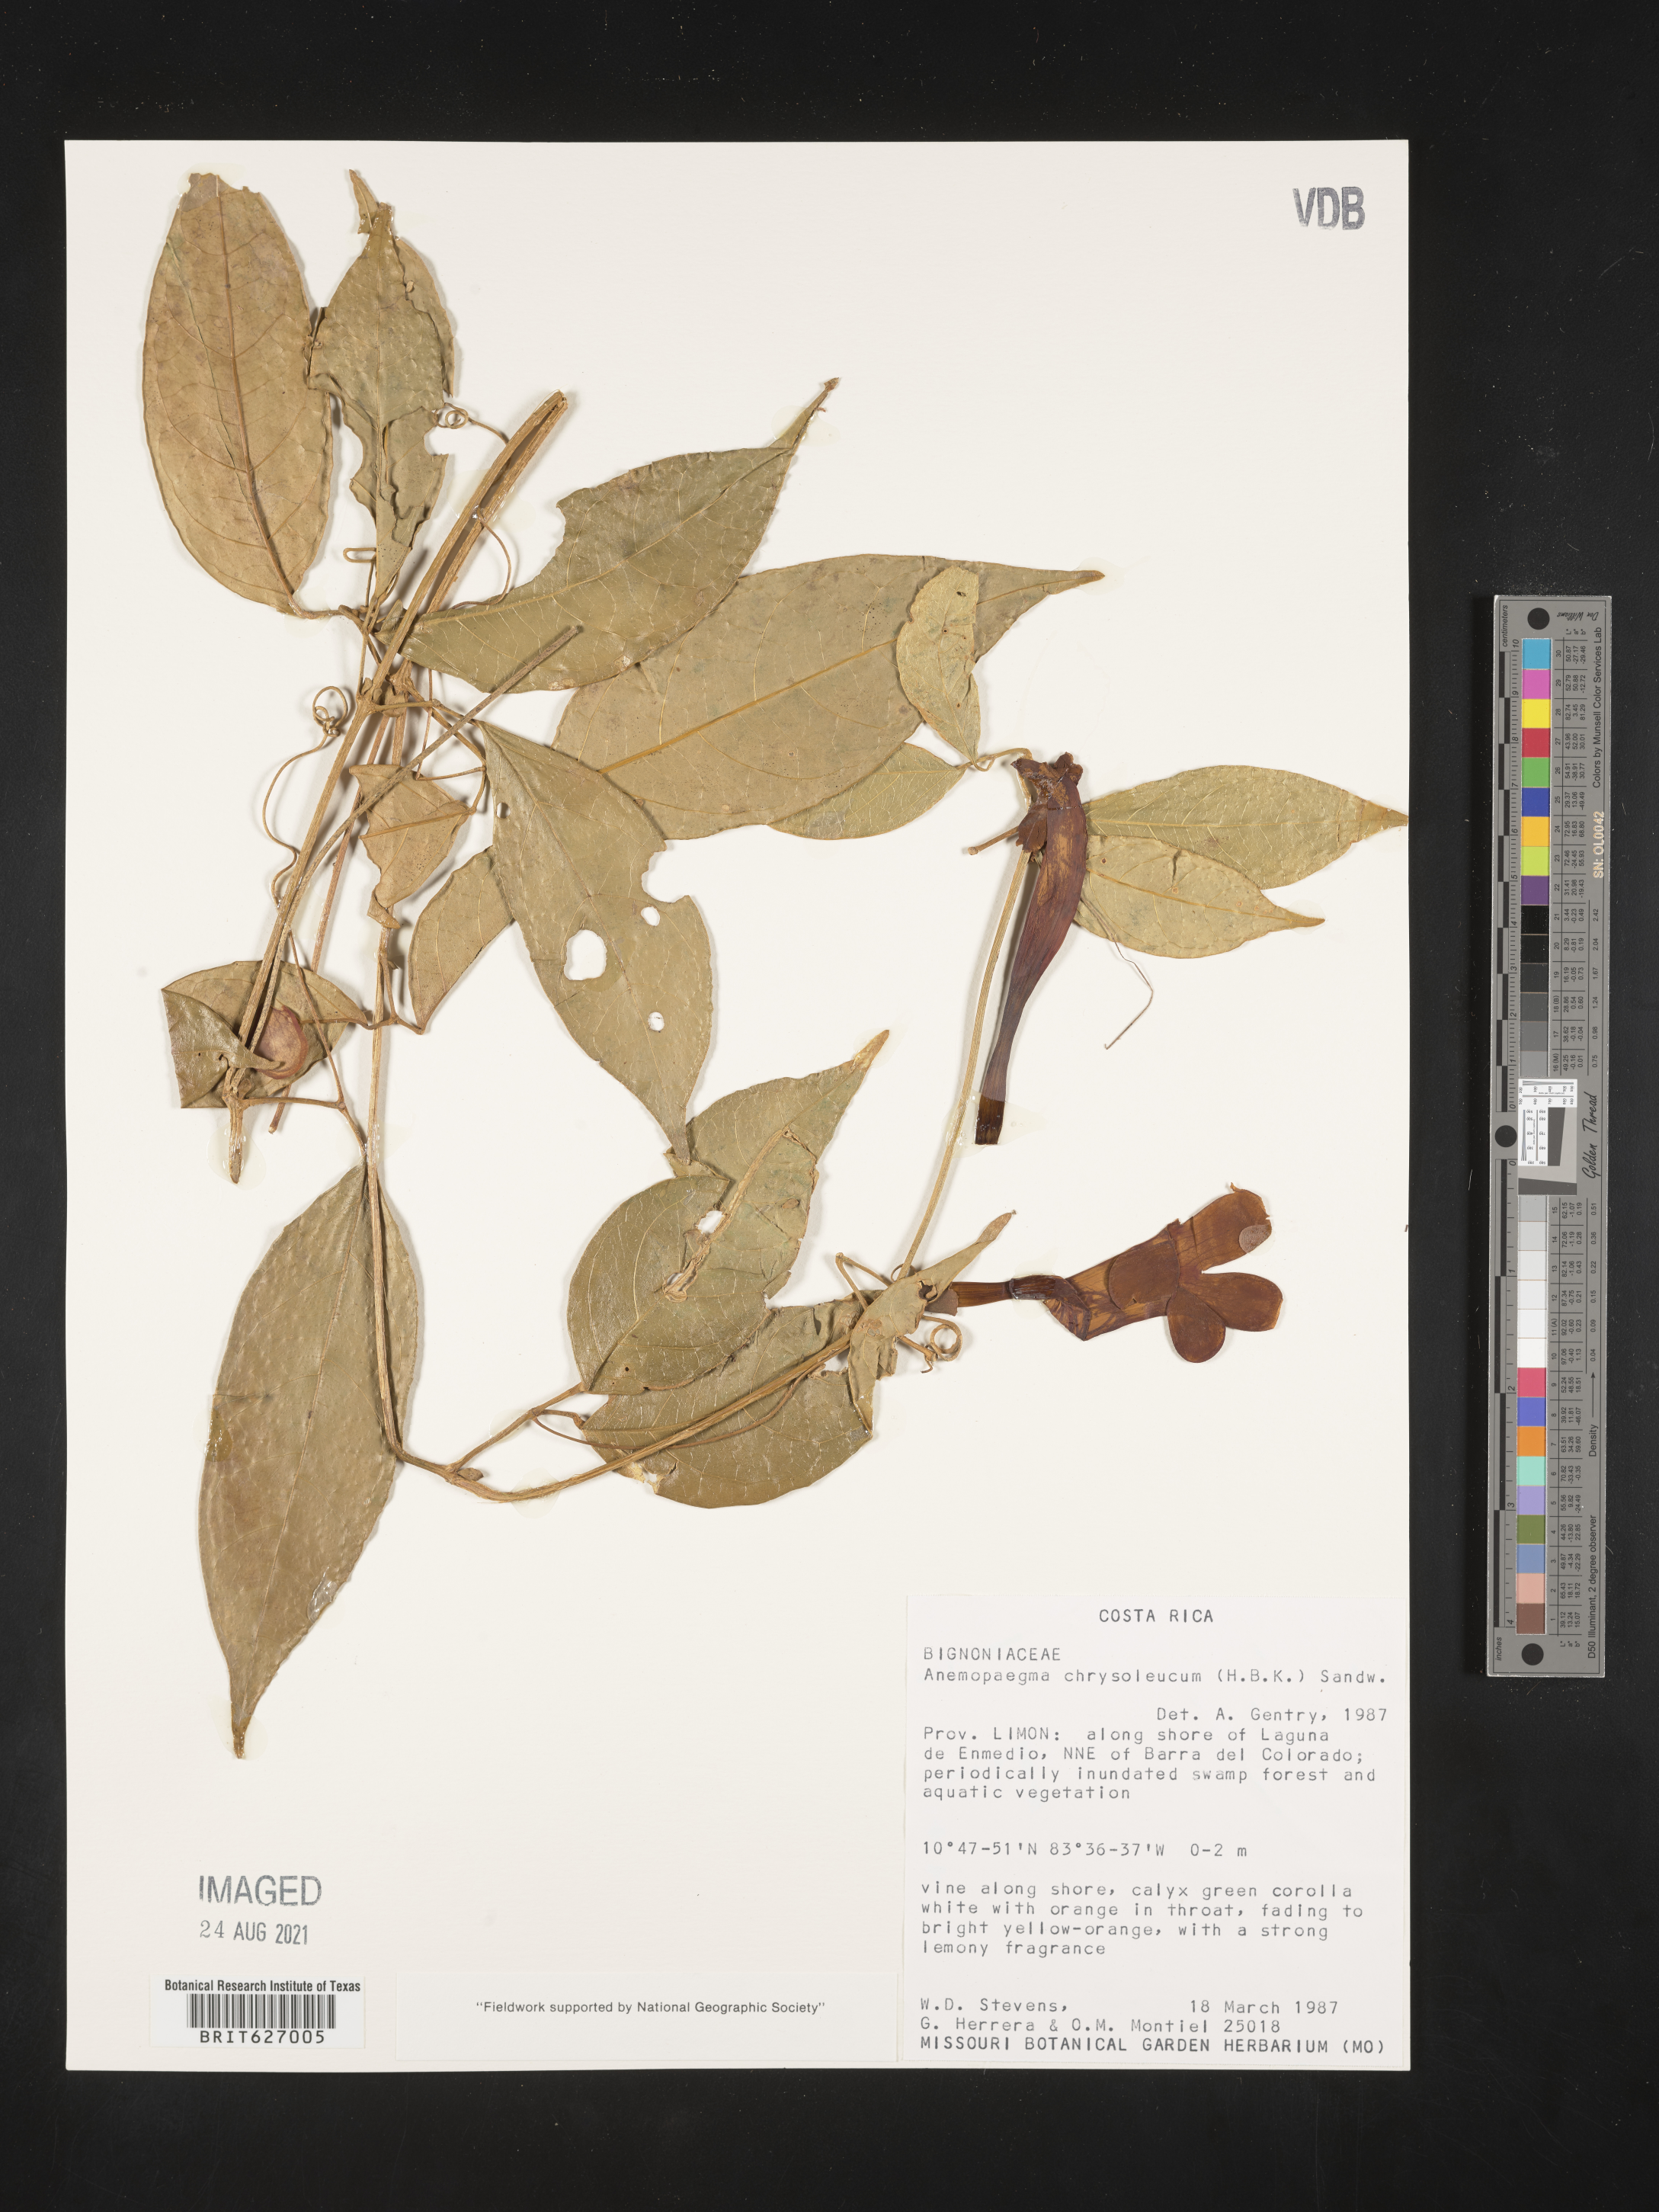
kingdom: Plantae
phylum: Tracheophyta
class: Magnoliopsida
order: Lamiales
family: Bignoniaceae
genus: Anemopaegma
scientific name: Anemopaegma chrysoleucum
